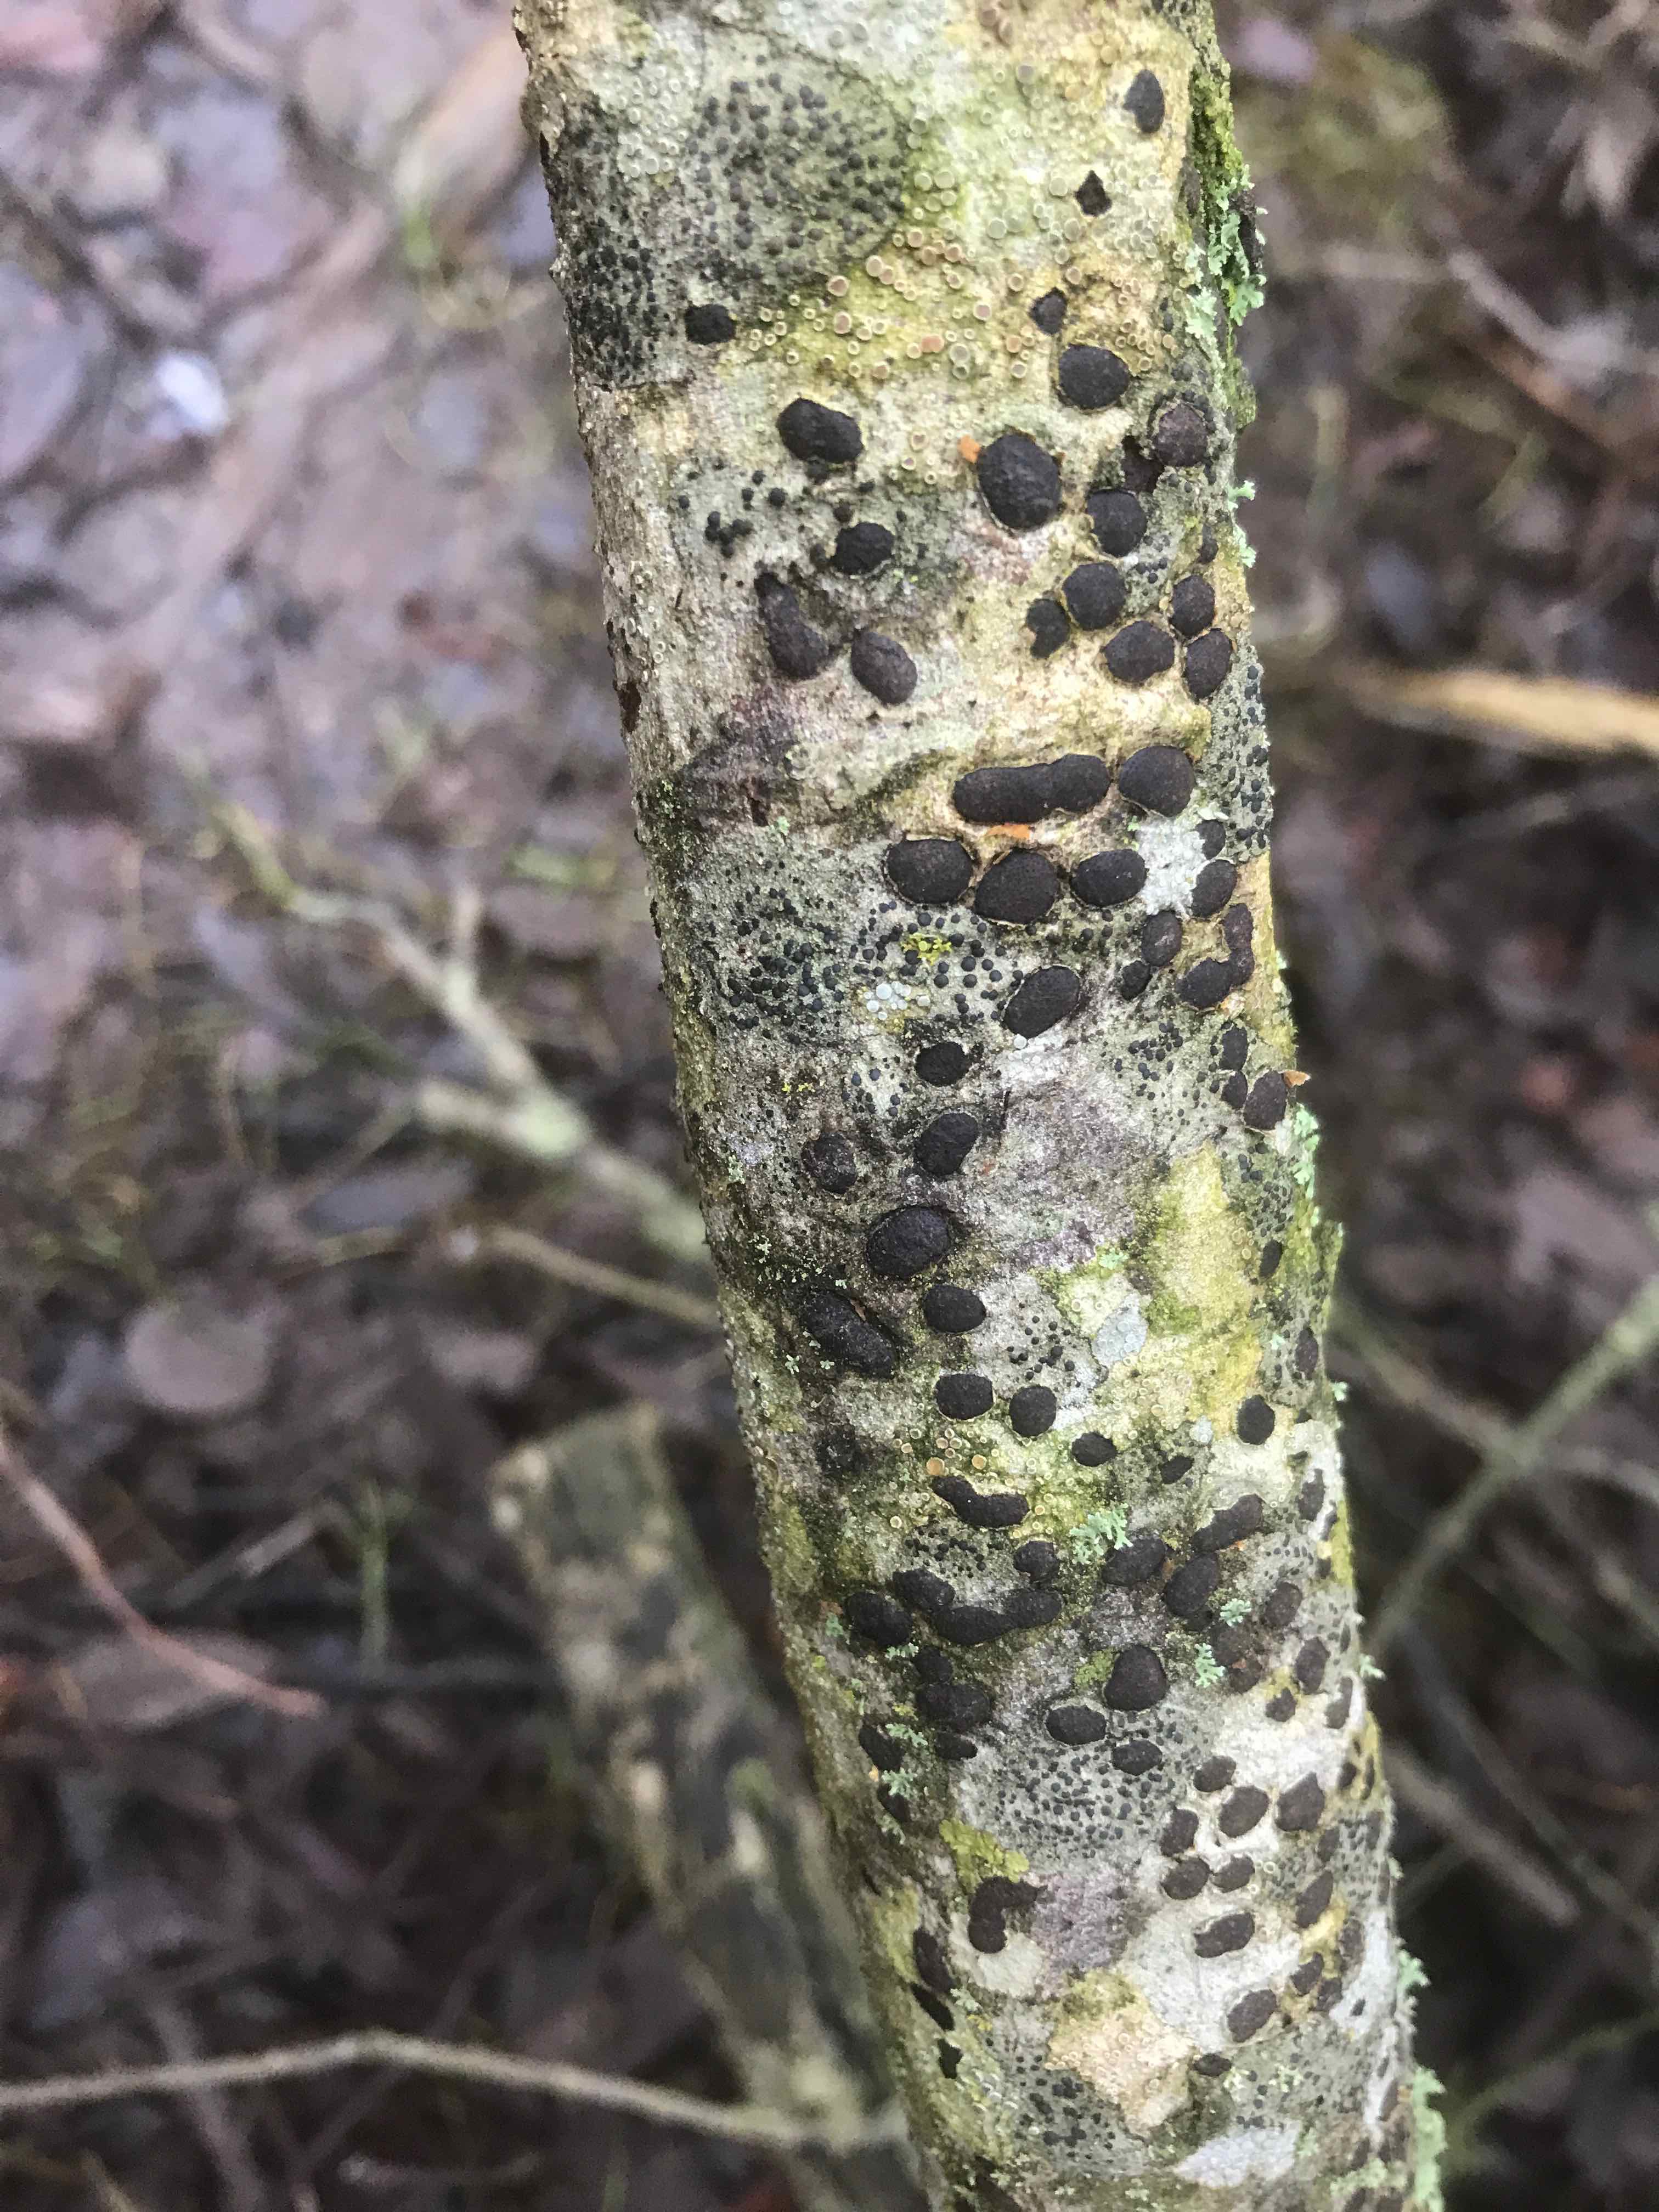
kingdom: Fungi
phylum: Ascomycota
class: Sordariomycetes
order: Xylariales
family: Diatrypaceae
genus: Diatrype
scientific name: Diatrype bullata
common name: pile-kulskorpe
